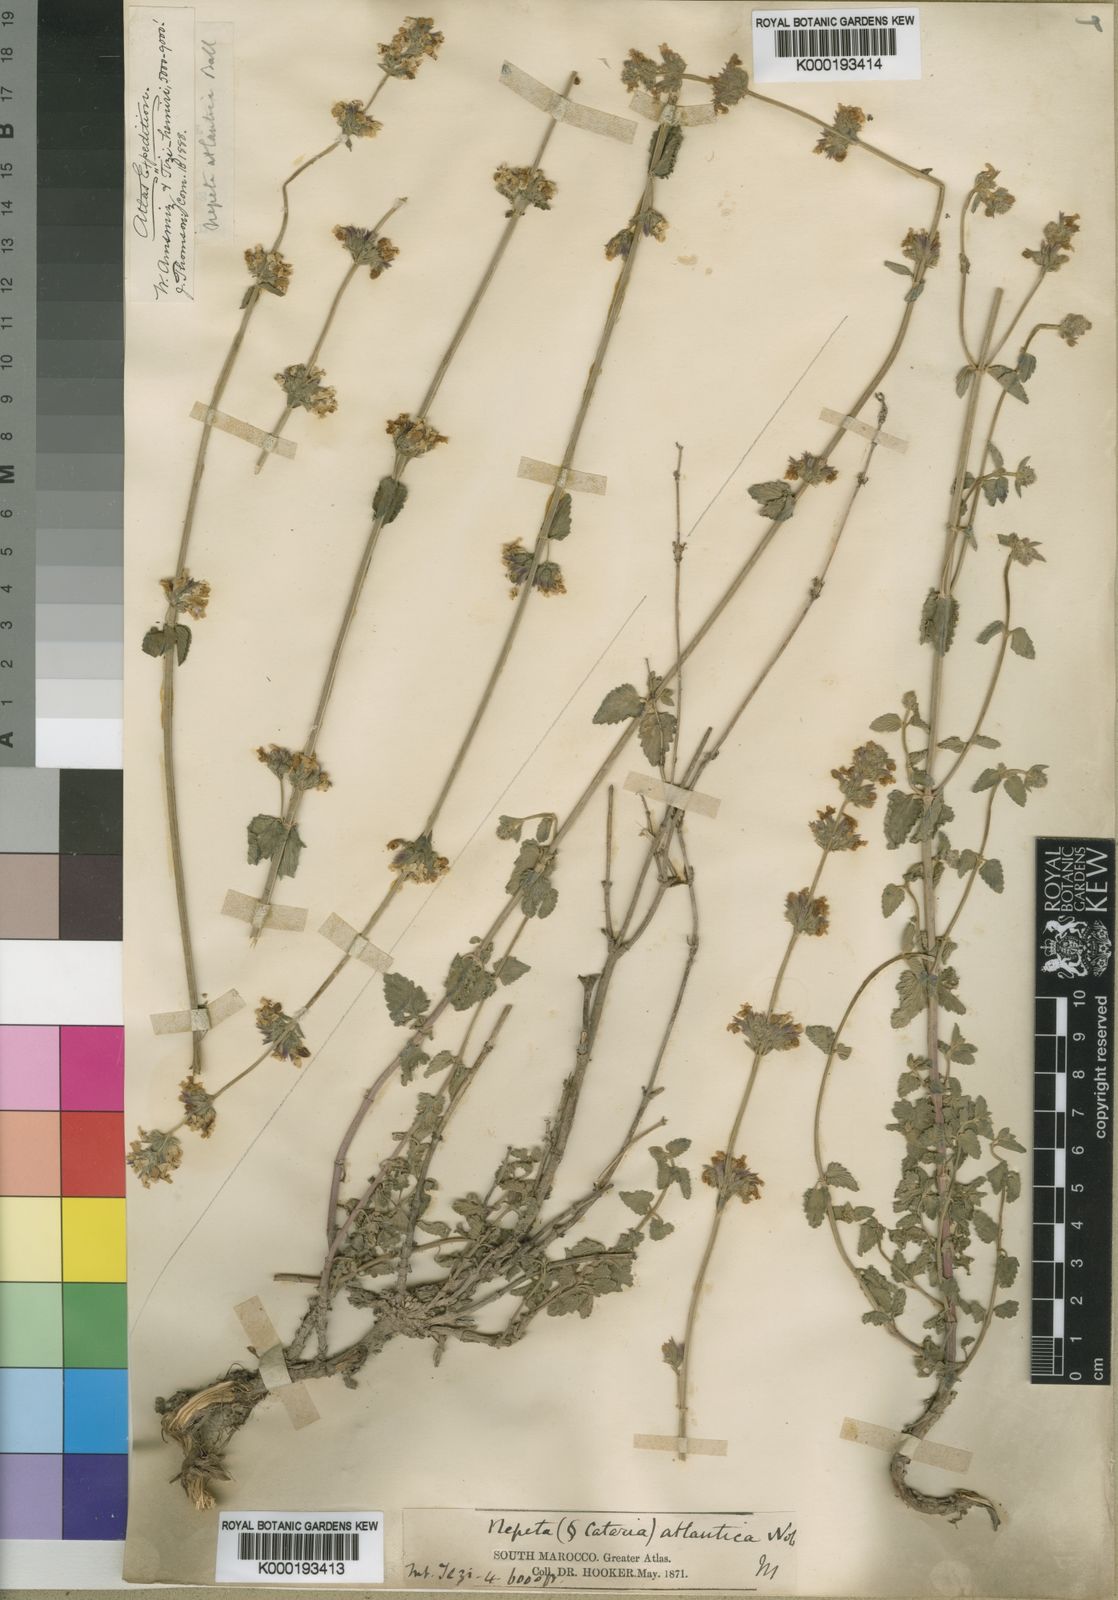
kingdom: Plantae
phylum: Tracheophyta
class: Magnoliopsida
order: Lamiales
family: Lamiaceae
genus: Nepeta
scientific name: Nepeta atlantica
